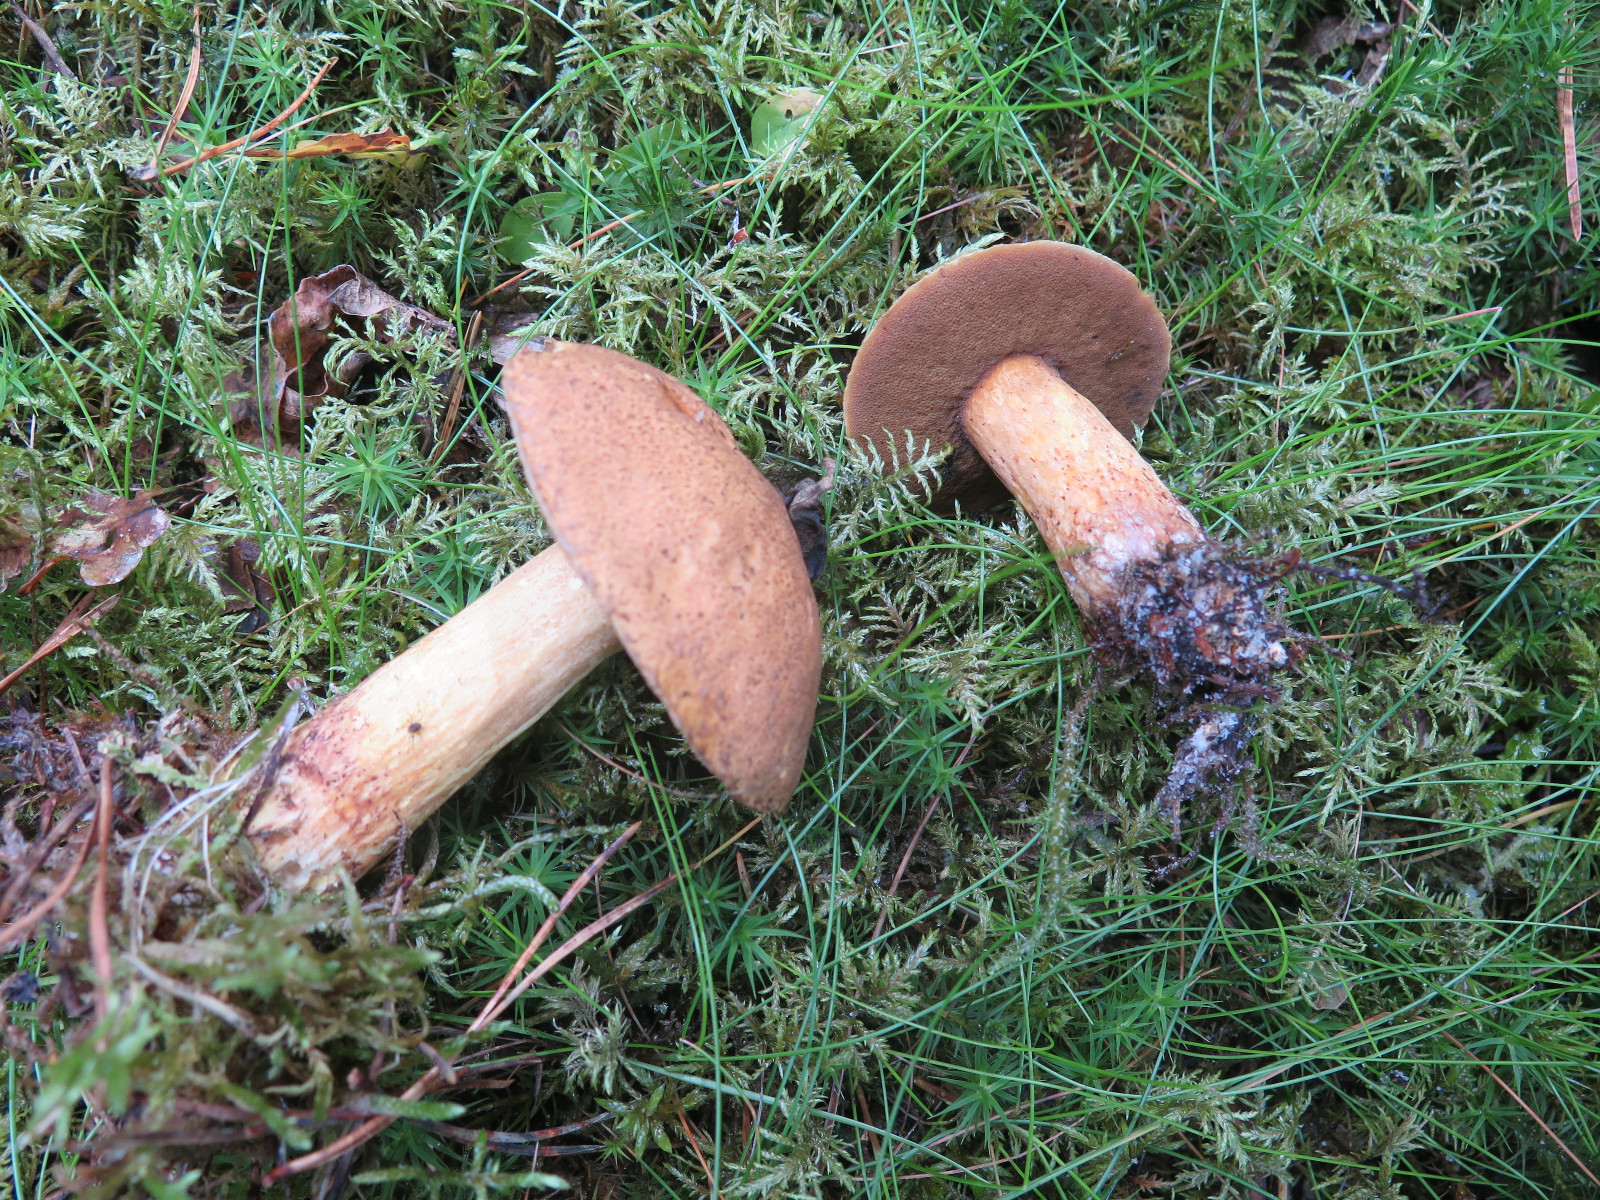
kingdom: Fungi
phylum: Basidiomycota
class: Agaricomycetes
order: Boletales
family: Boletaceae
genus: Chalciporus
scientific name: Chalciporus piperatus
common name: peberrørhat
